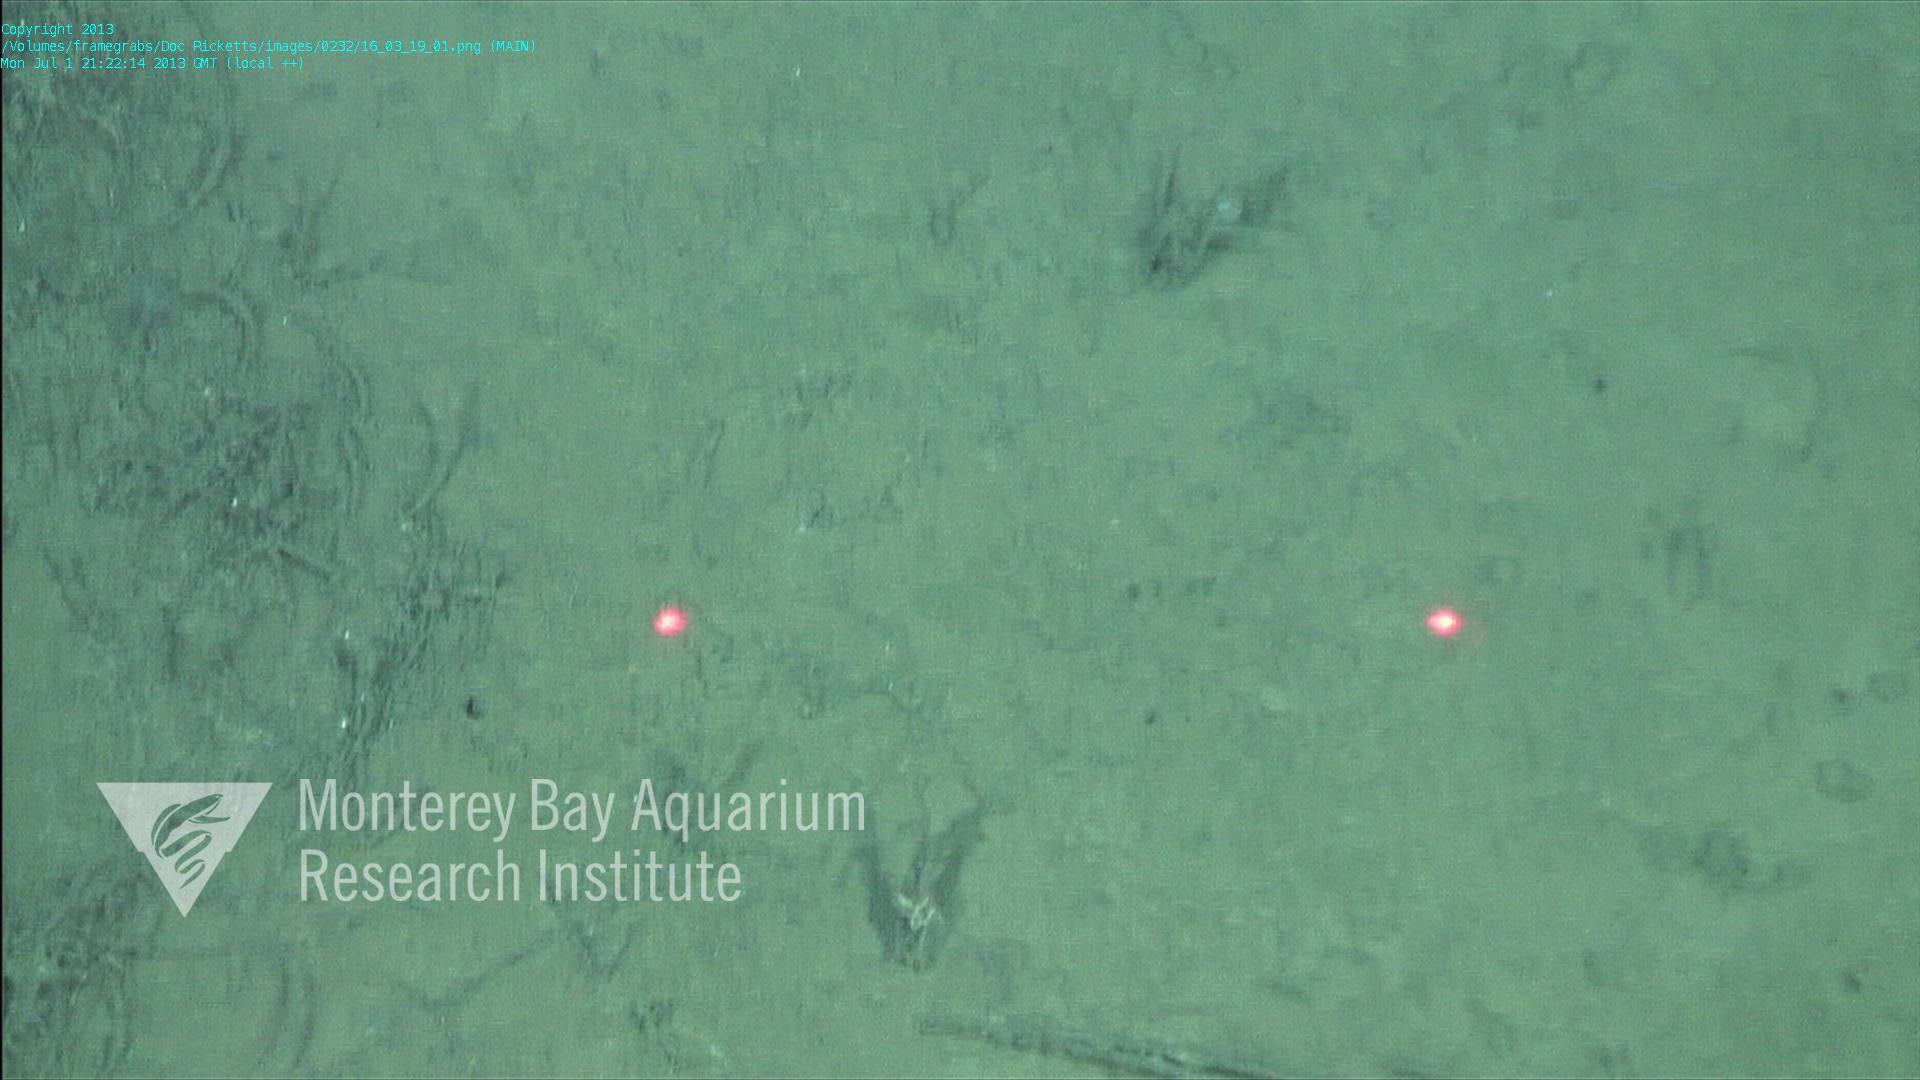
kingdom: Animalia
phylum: Porifera
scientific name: Porifera
